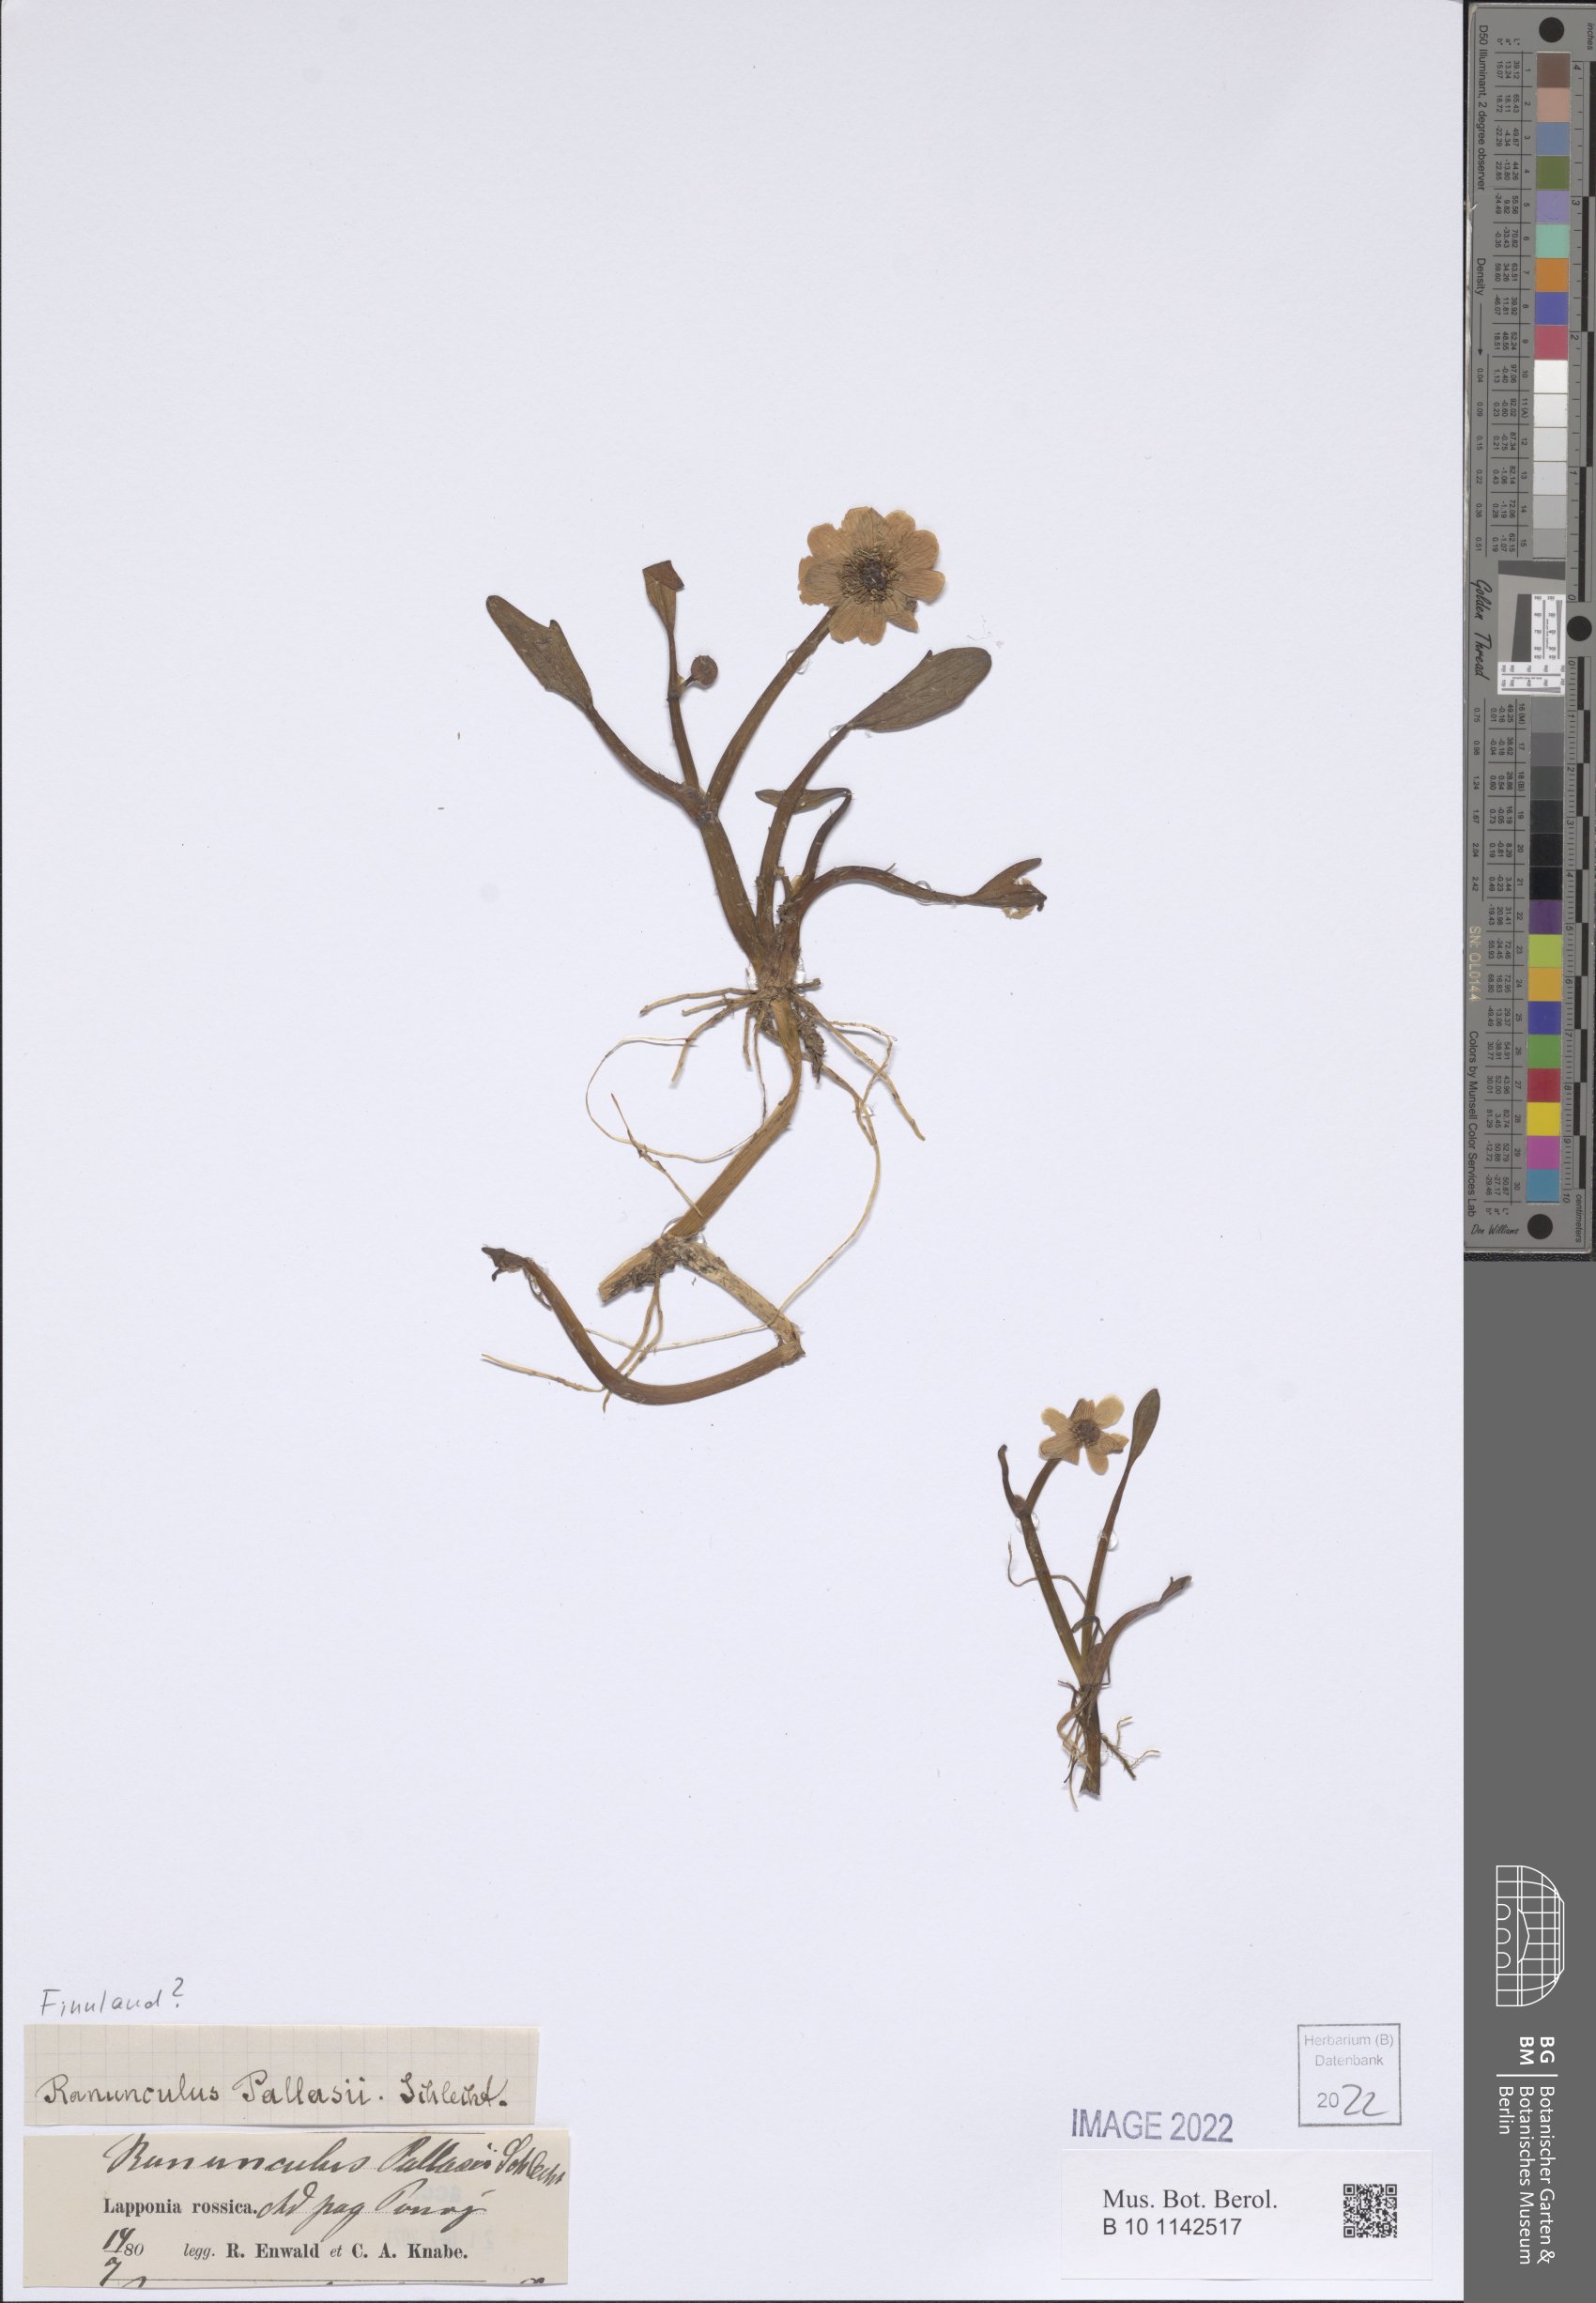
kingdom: Plantae
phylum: Tracheophyta
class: Magnoliopsida
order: Ranunculales
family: Ranunculaceae
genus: Coptidium
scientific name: Coptidium pallasii
